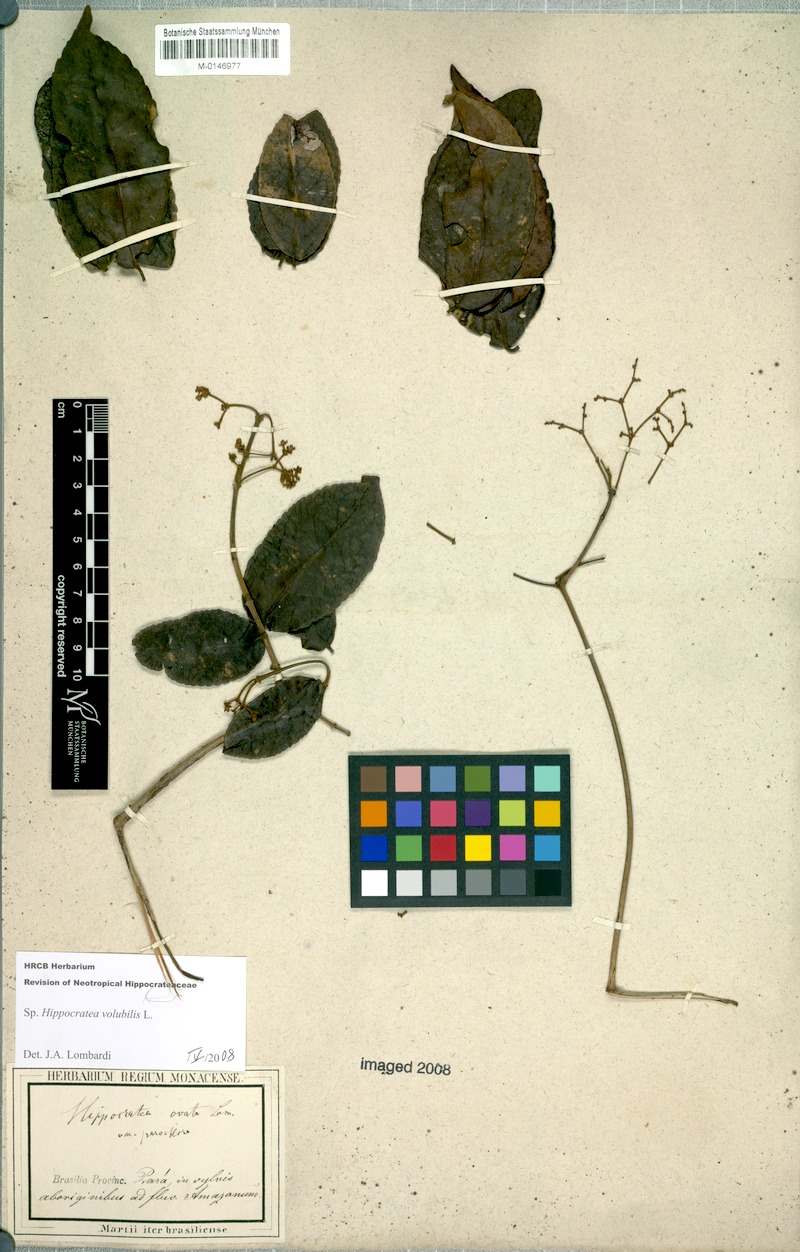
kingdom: Plantae
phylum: Tracheophyta
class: Magnoliopsida
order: Celastrales
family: Celastraceae
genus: Hippocratea
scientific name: Hippocratea volubilis
